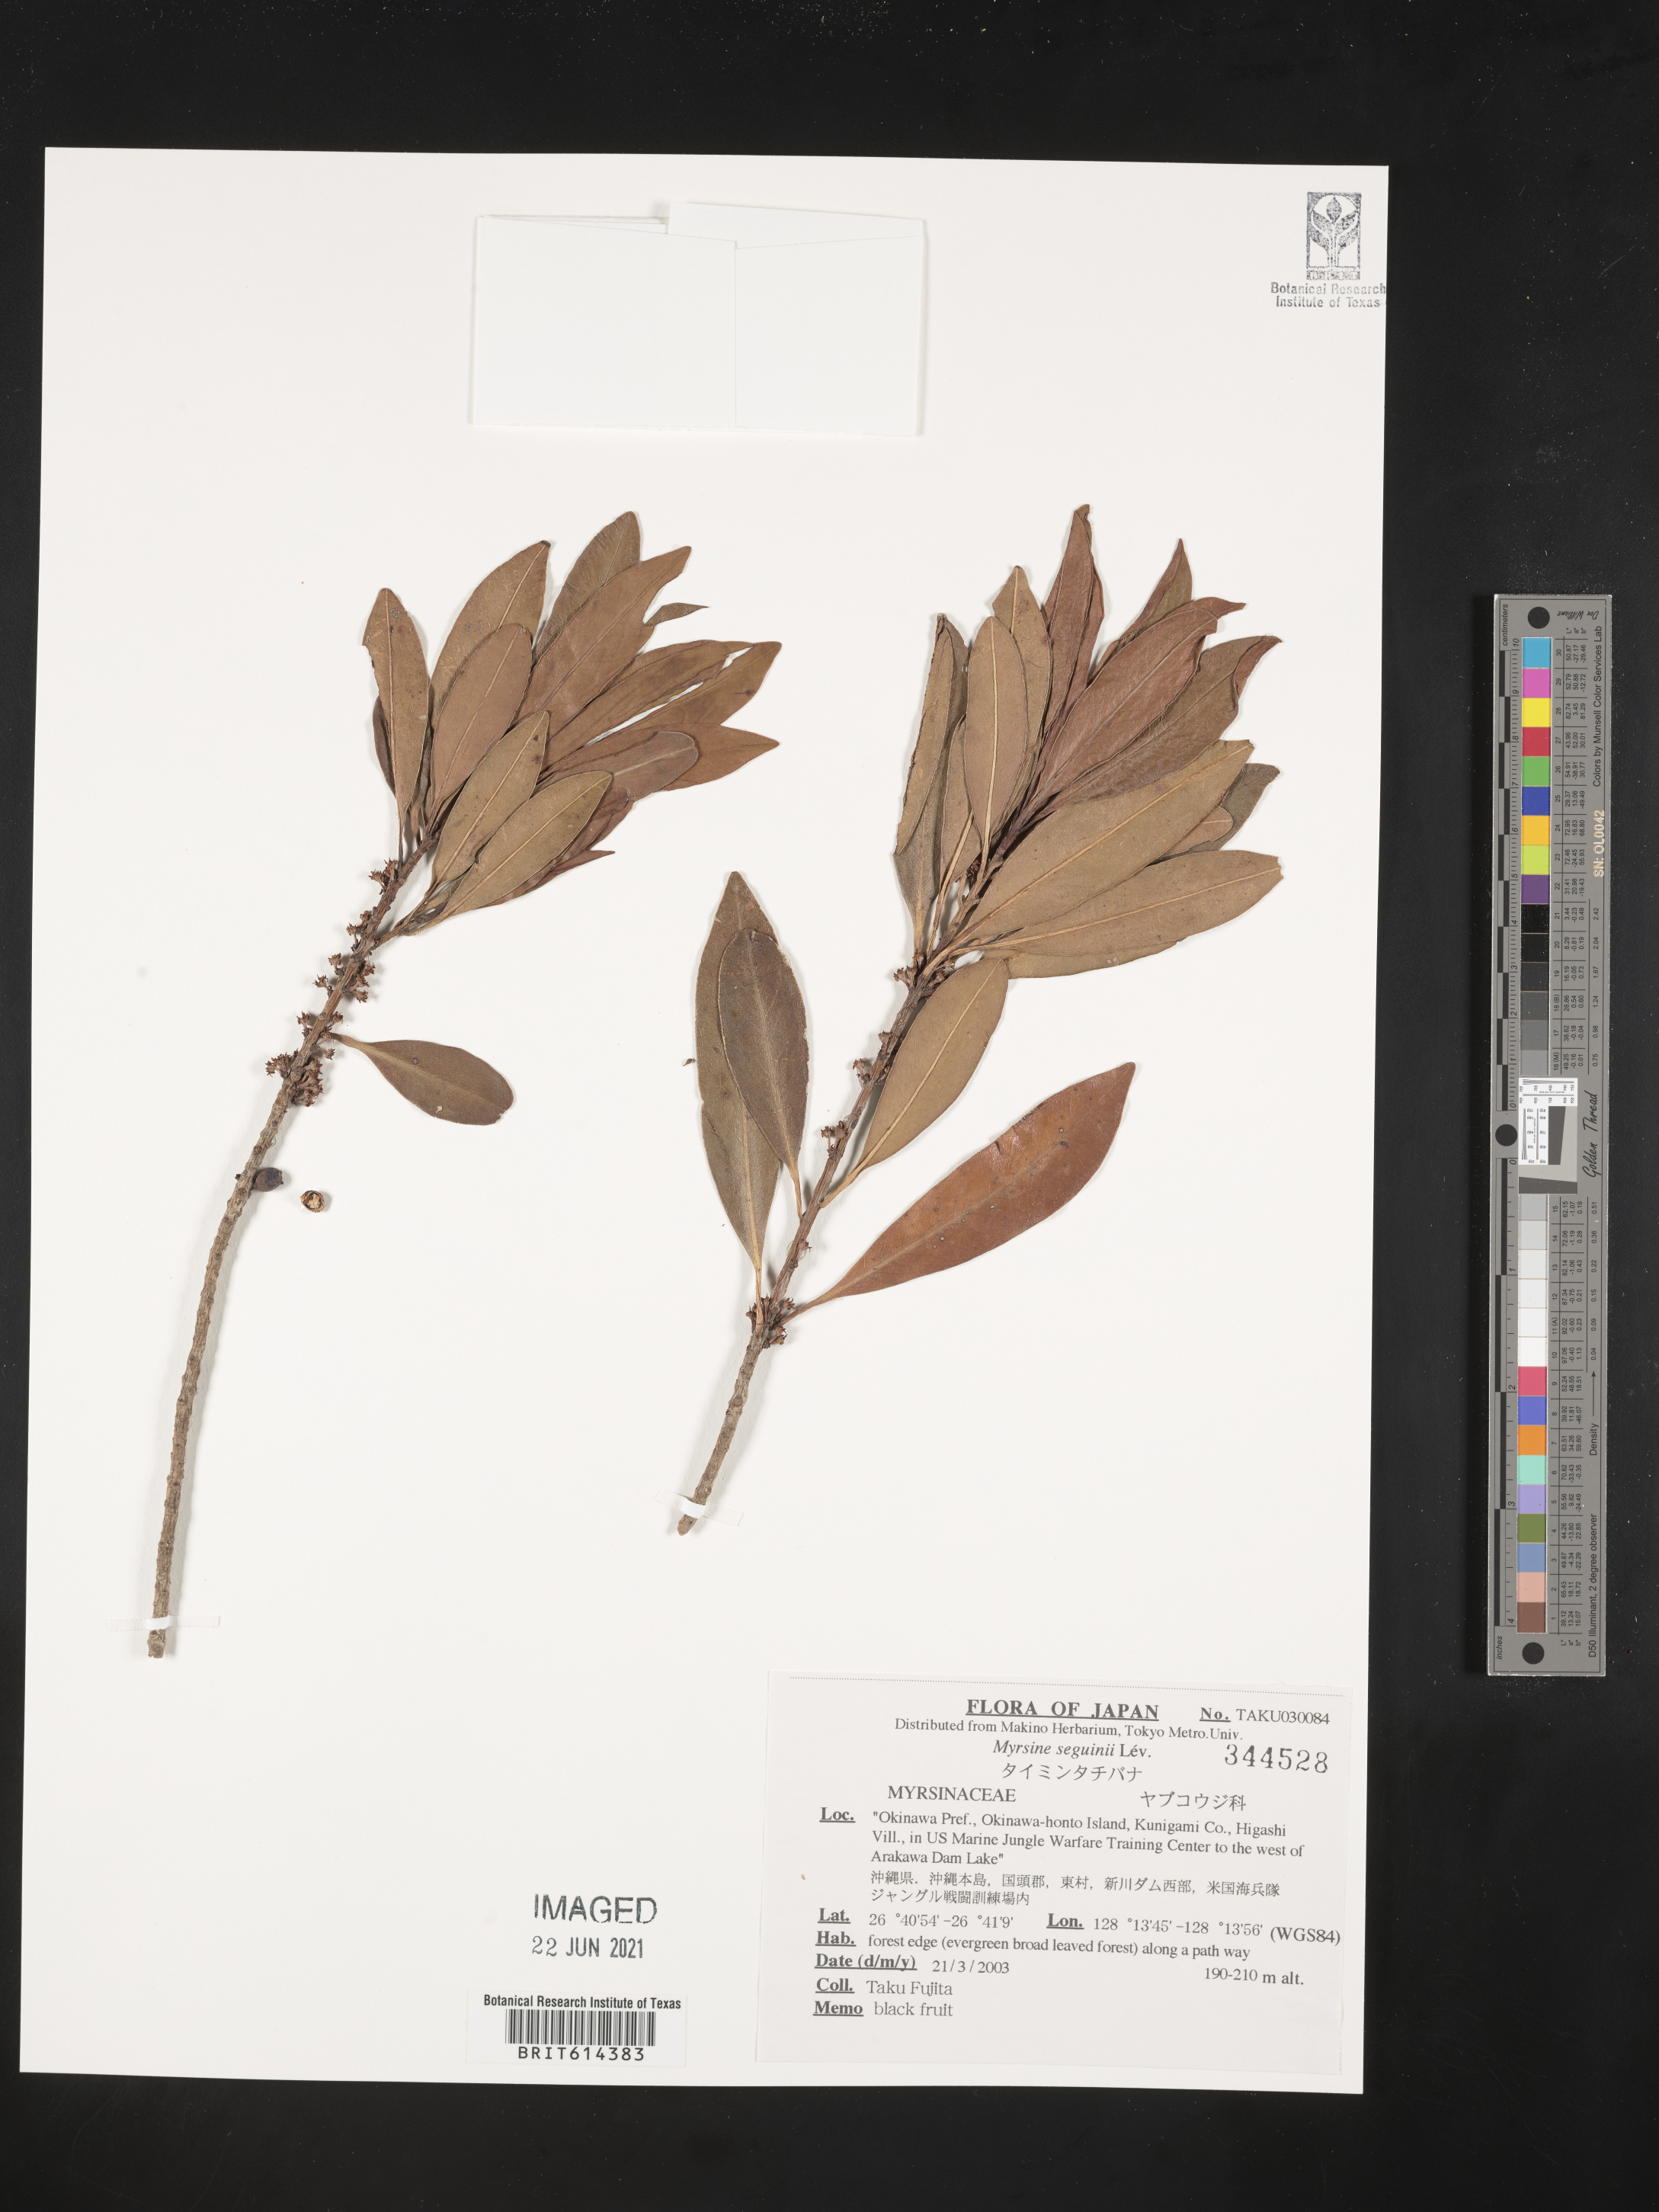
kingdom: Plantae
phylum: Tracheophyta
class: Magnoliopsida
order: Ericales
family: Primulaceae
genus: Myrsine
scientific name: Myrsine seguinii
